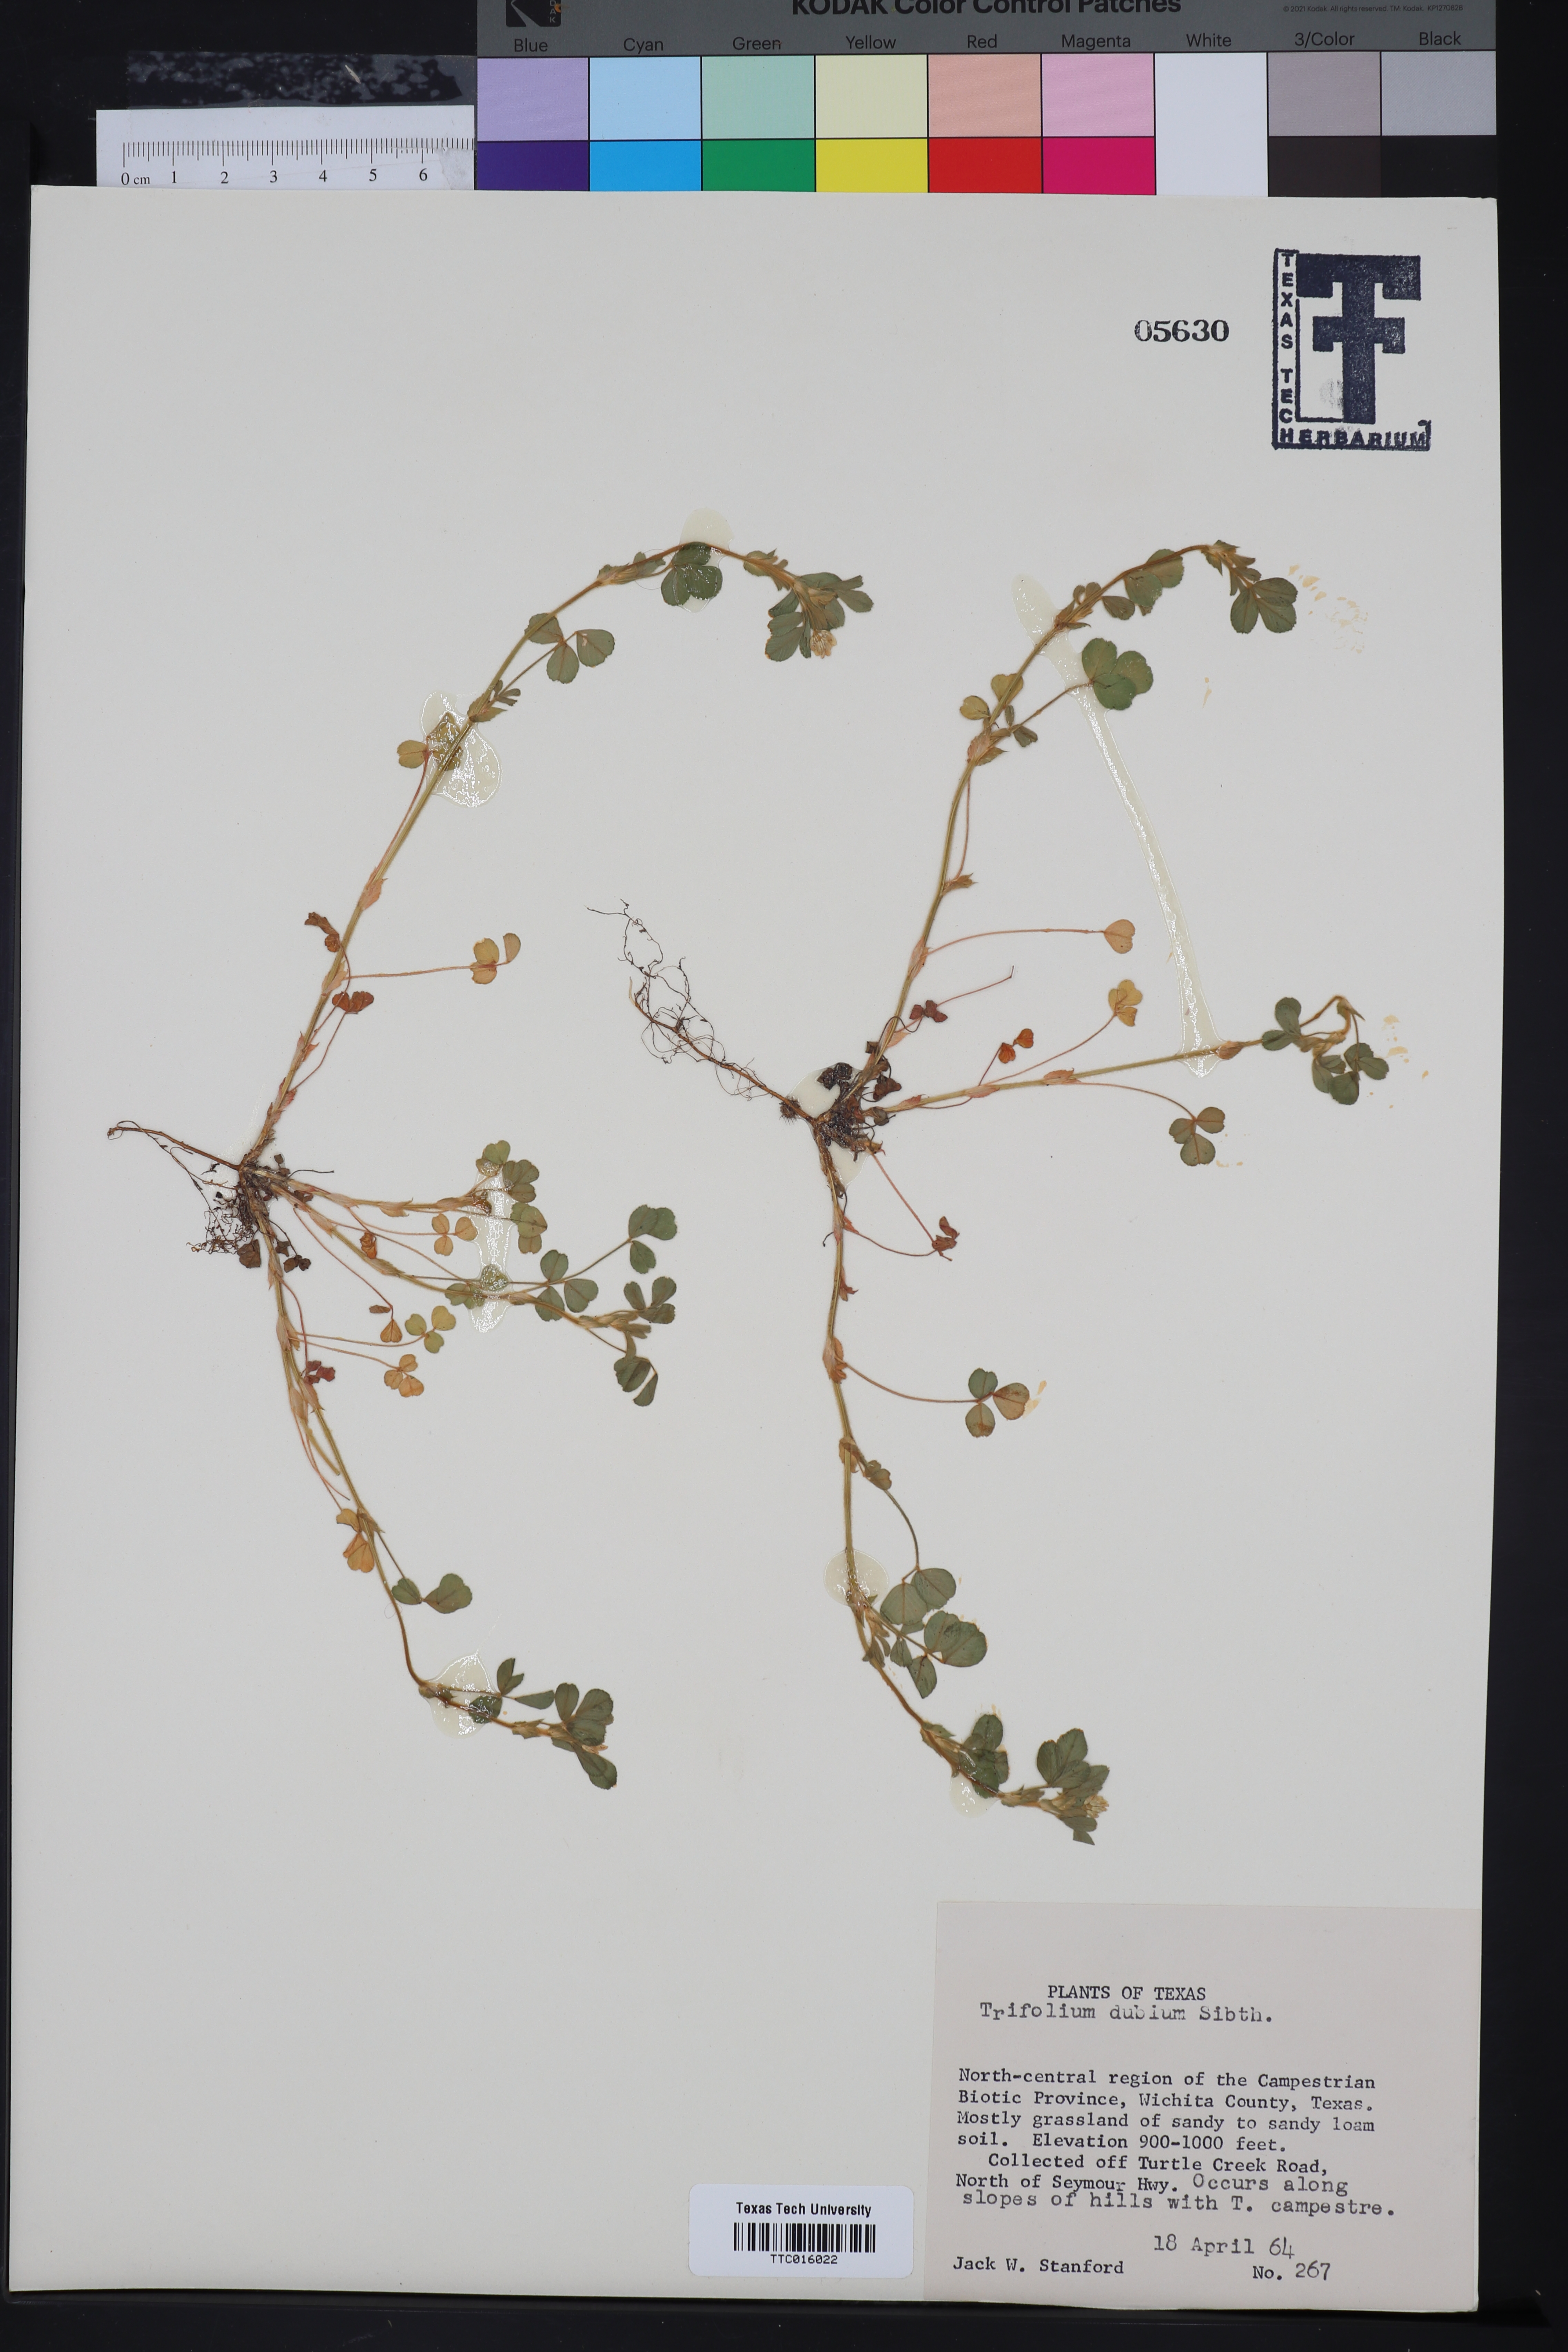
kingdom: Plantae
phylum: Tracheophyta
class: Magnoliopsida
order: Fabales
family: Fabaceae
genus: Trifolium
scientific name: Trifolium dubium
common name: Suckling clover
